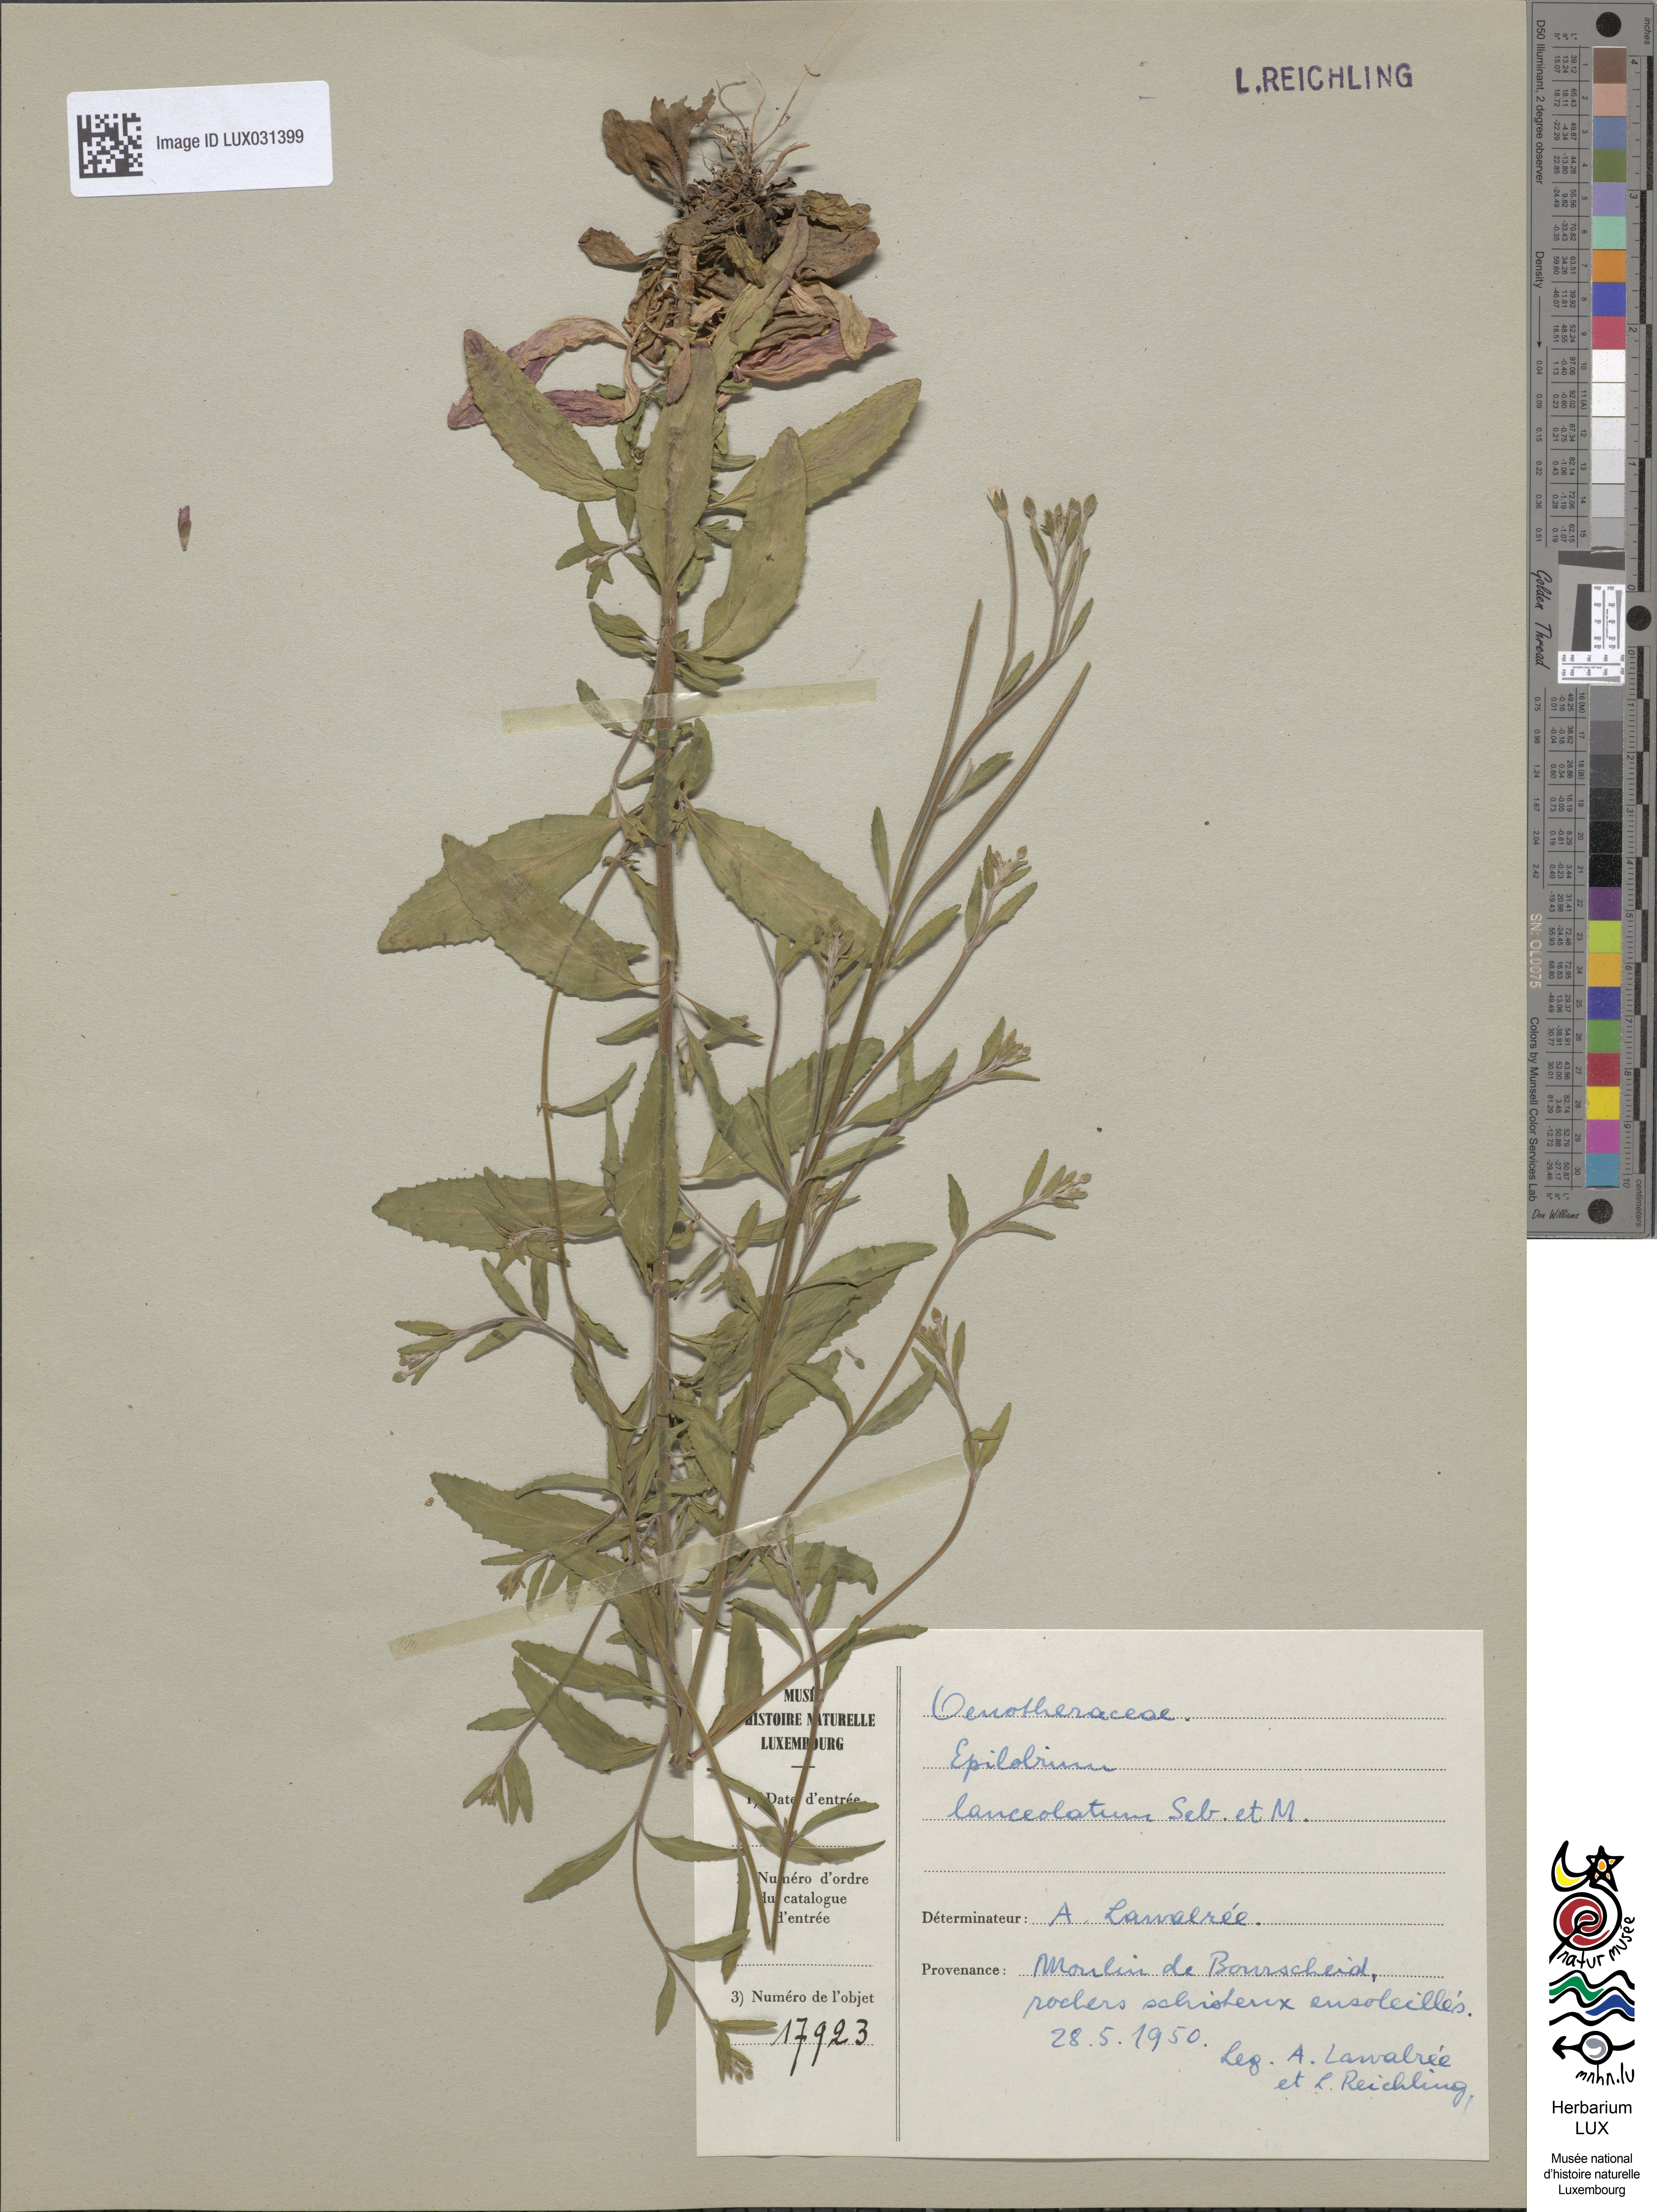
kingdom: Plantae
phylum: Tracheophyta
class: Magnoliopsida
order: Myrtales
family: Onagraceae
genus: Epilobium
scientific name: Epilobium lanceolatum
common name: Spear-leaved willowherb
